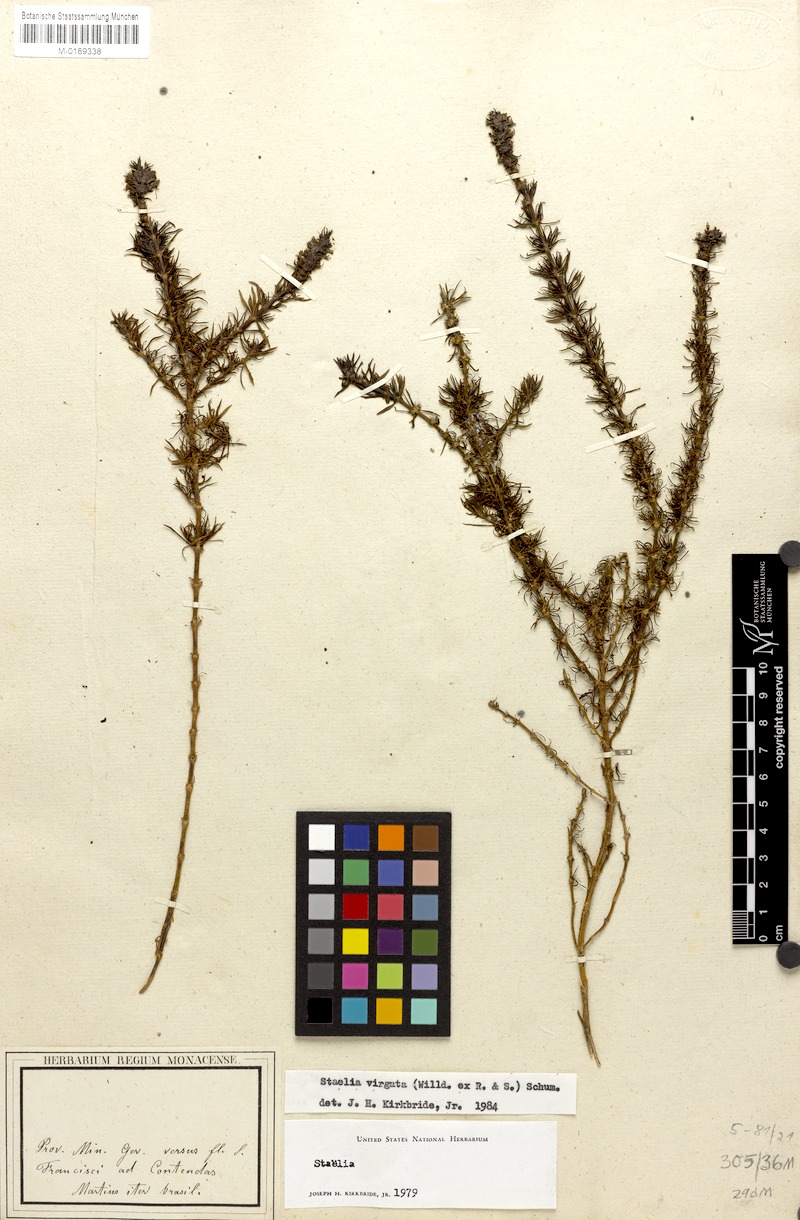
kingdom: Plantae
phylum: Tracheophyta
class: Magnoliopsida
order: Gentianales
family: Rubiaceae
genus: Staelia
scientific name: Staelia virgata
